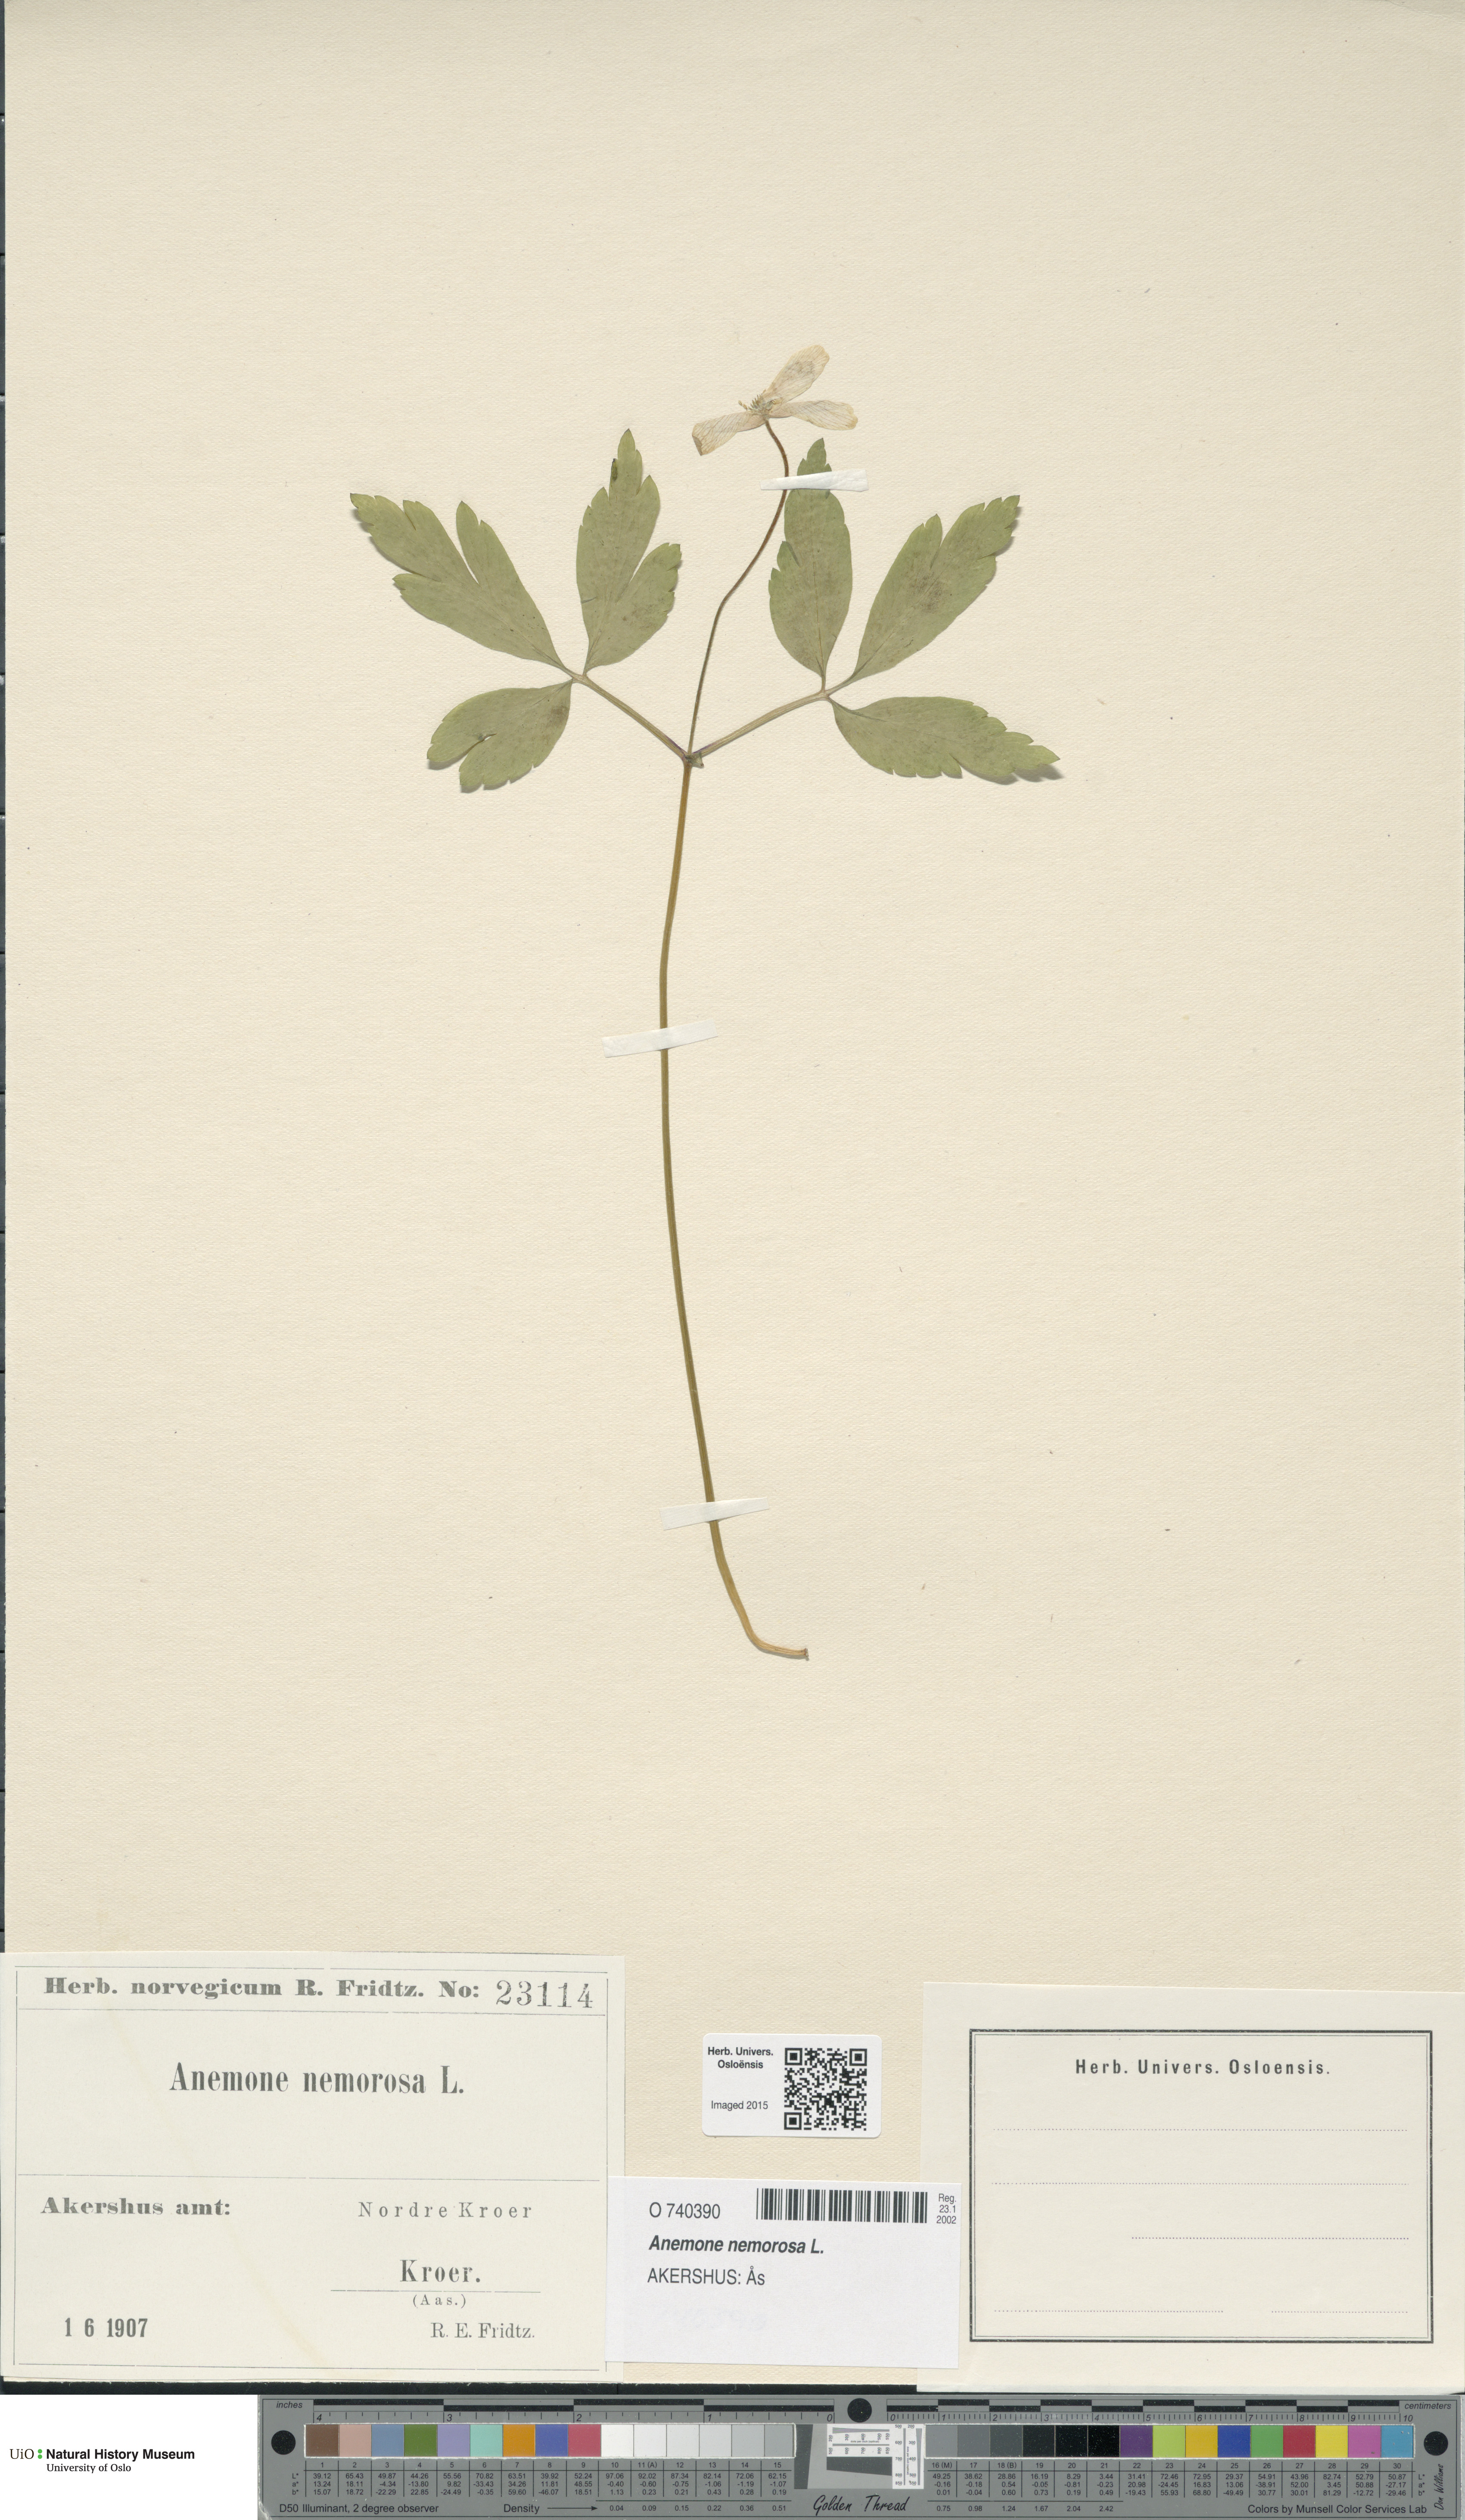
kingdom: Plantae
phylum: Tracheophyta
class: Magnoliopsida
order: Ranunculales
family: Ranunculaceae
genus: Anemone
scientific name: Anemone nemorosa
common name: Wood anemone
